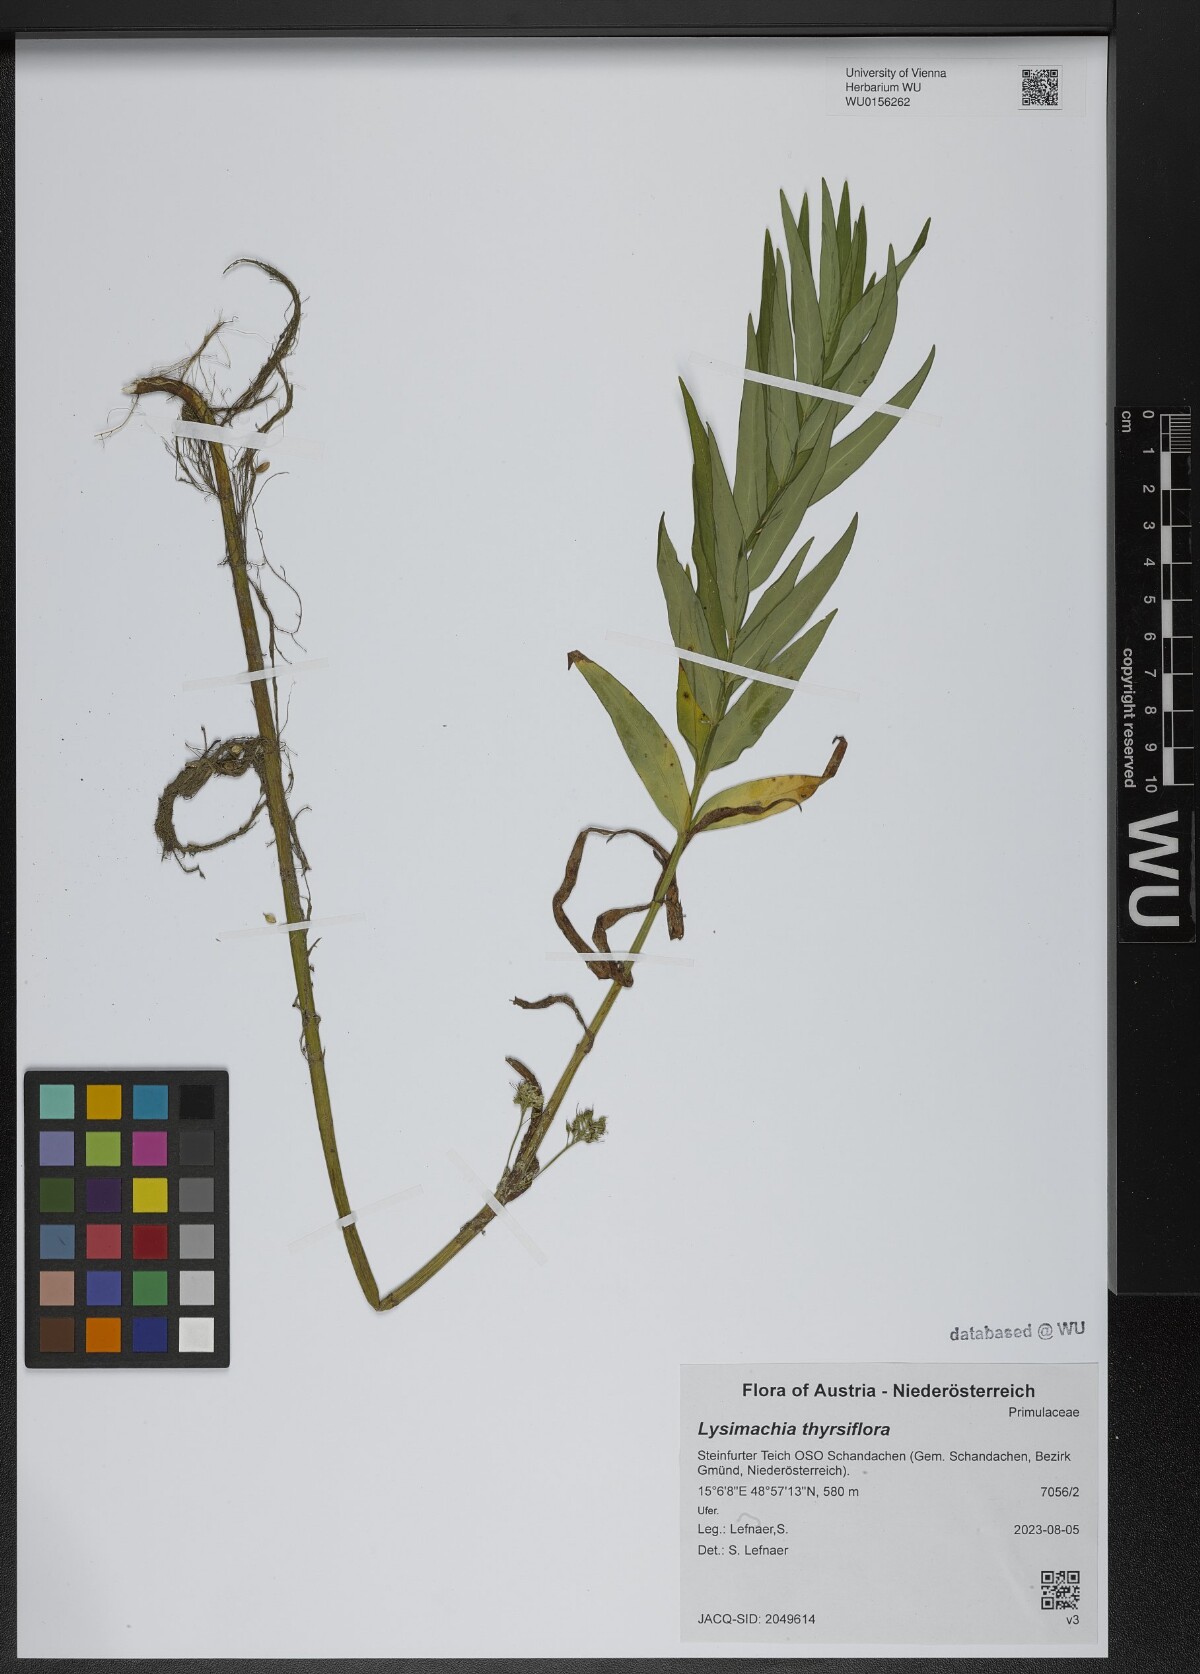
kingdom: Plantae
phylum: Tracheophyta
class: Magnoliopsida
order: Ericales
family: Primulaceae
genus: Lysimachia
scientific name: Lysimachia thyrsiflora
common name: Tufted loosestrife
